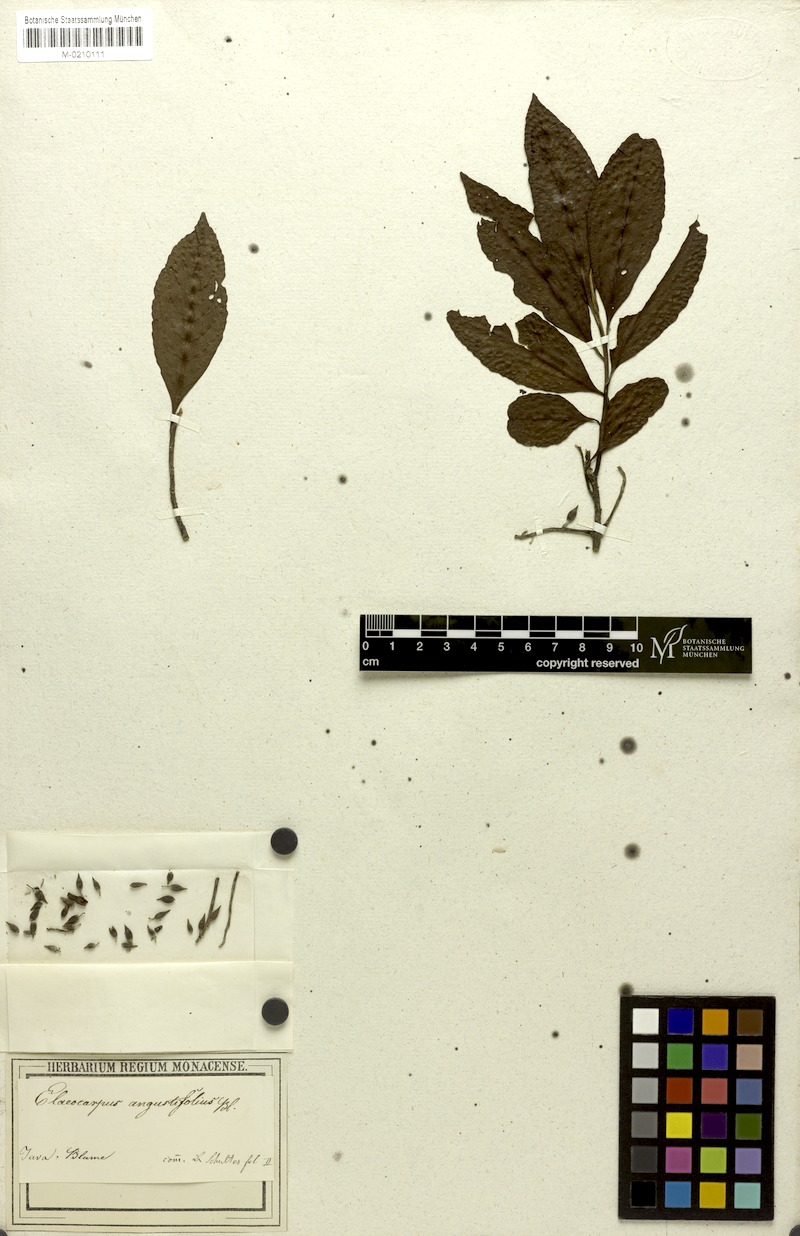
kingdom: Plantae
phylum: Tracheophyta
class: Magnoliopsida
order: Oxalidales
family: Elaeocarpaceae
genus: Elaeocarpus
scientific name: Elaeocarpus angustifolius
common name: Blue marble tree
